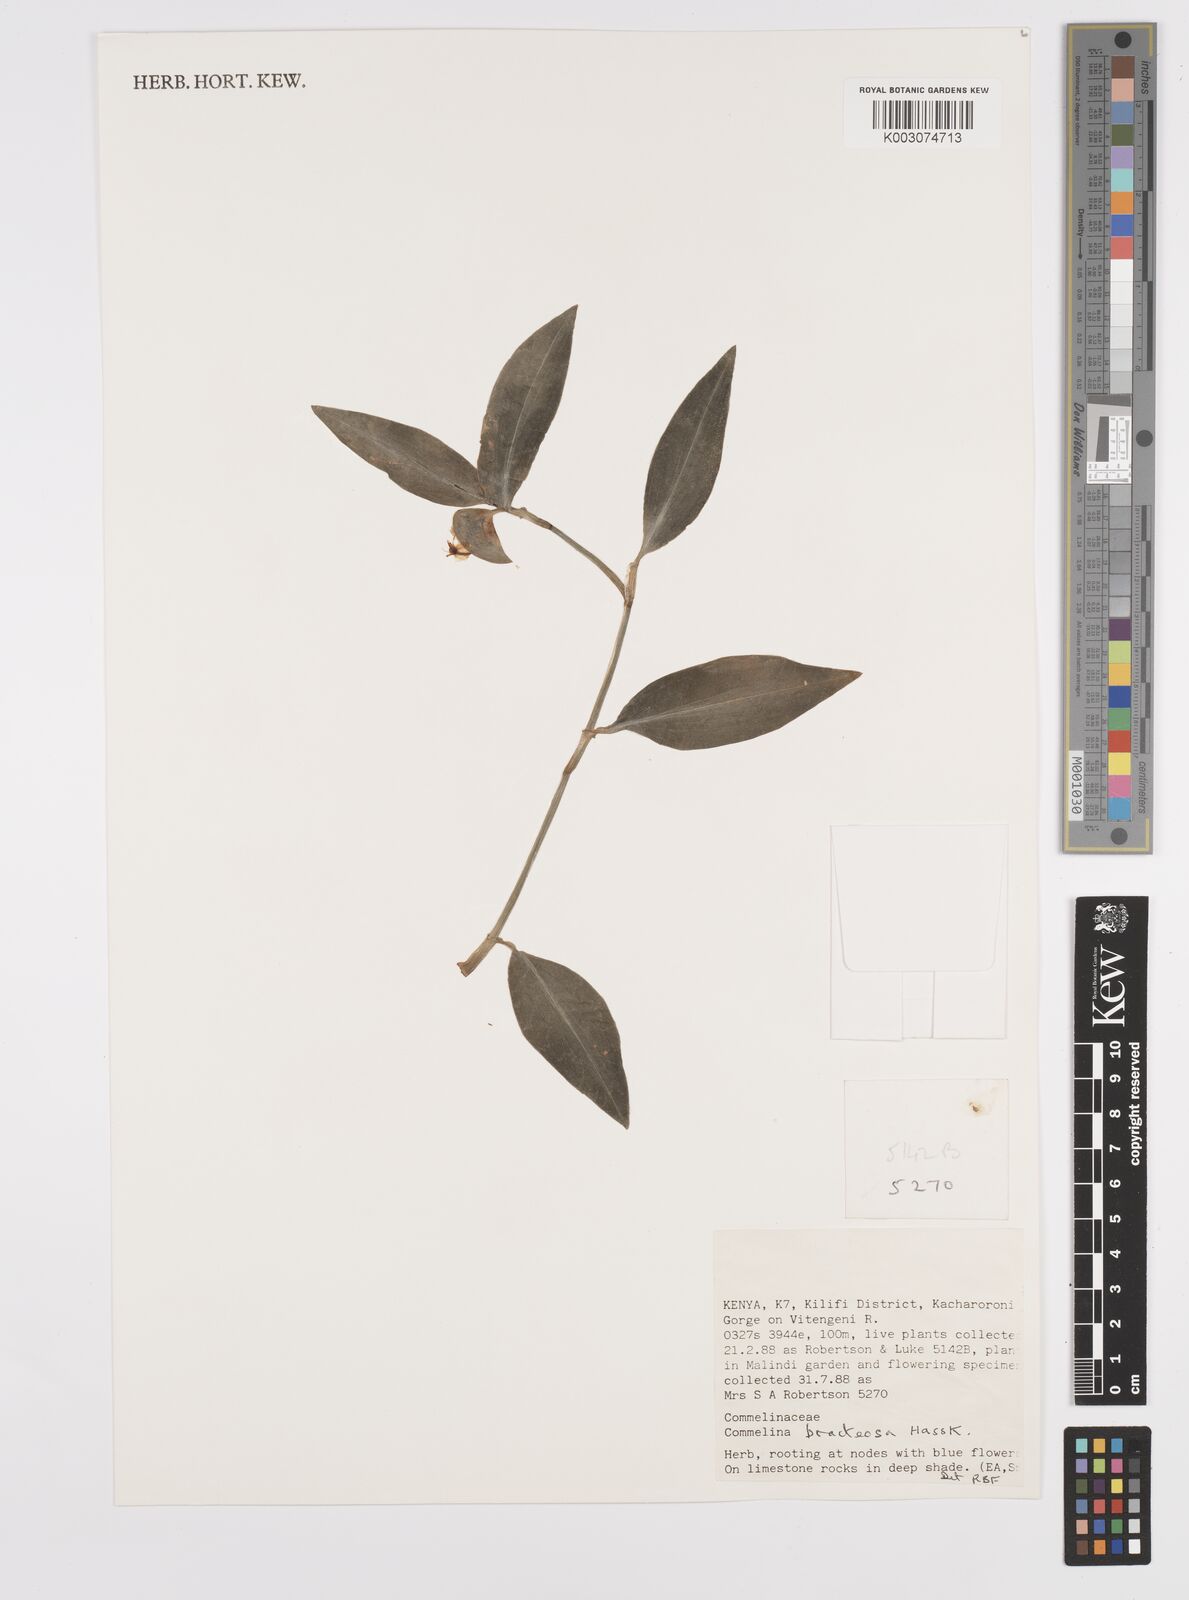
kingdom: Plantae
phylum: Tracheophyta
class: Liliopsida
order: Commelinales
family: Commelinaceae
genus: Commelina
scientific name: Commelina bracteosa
